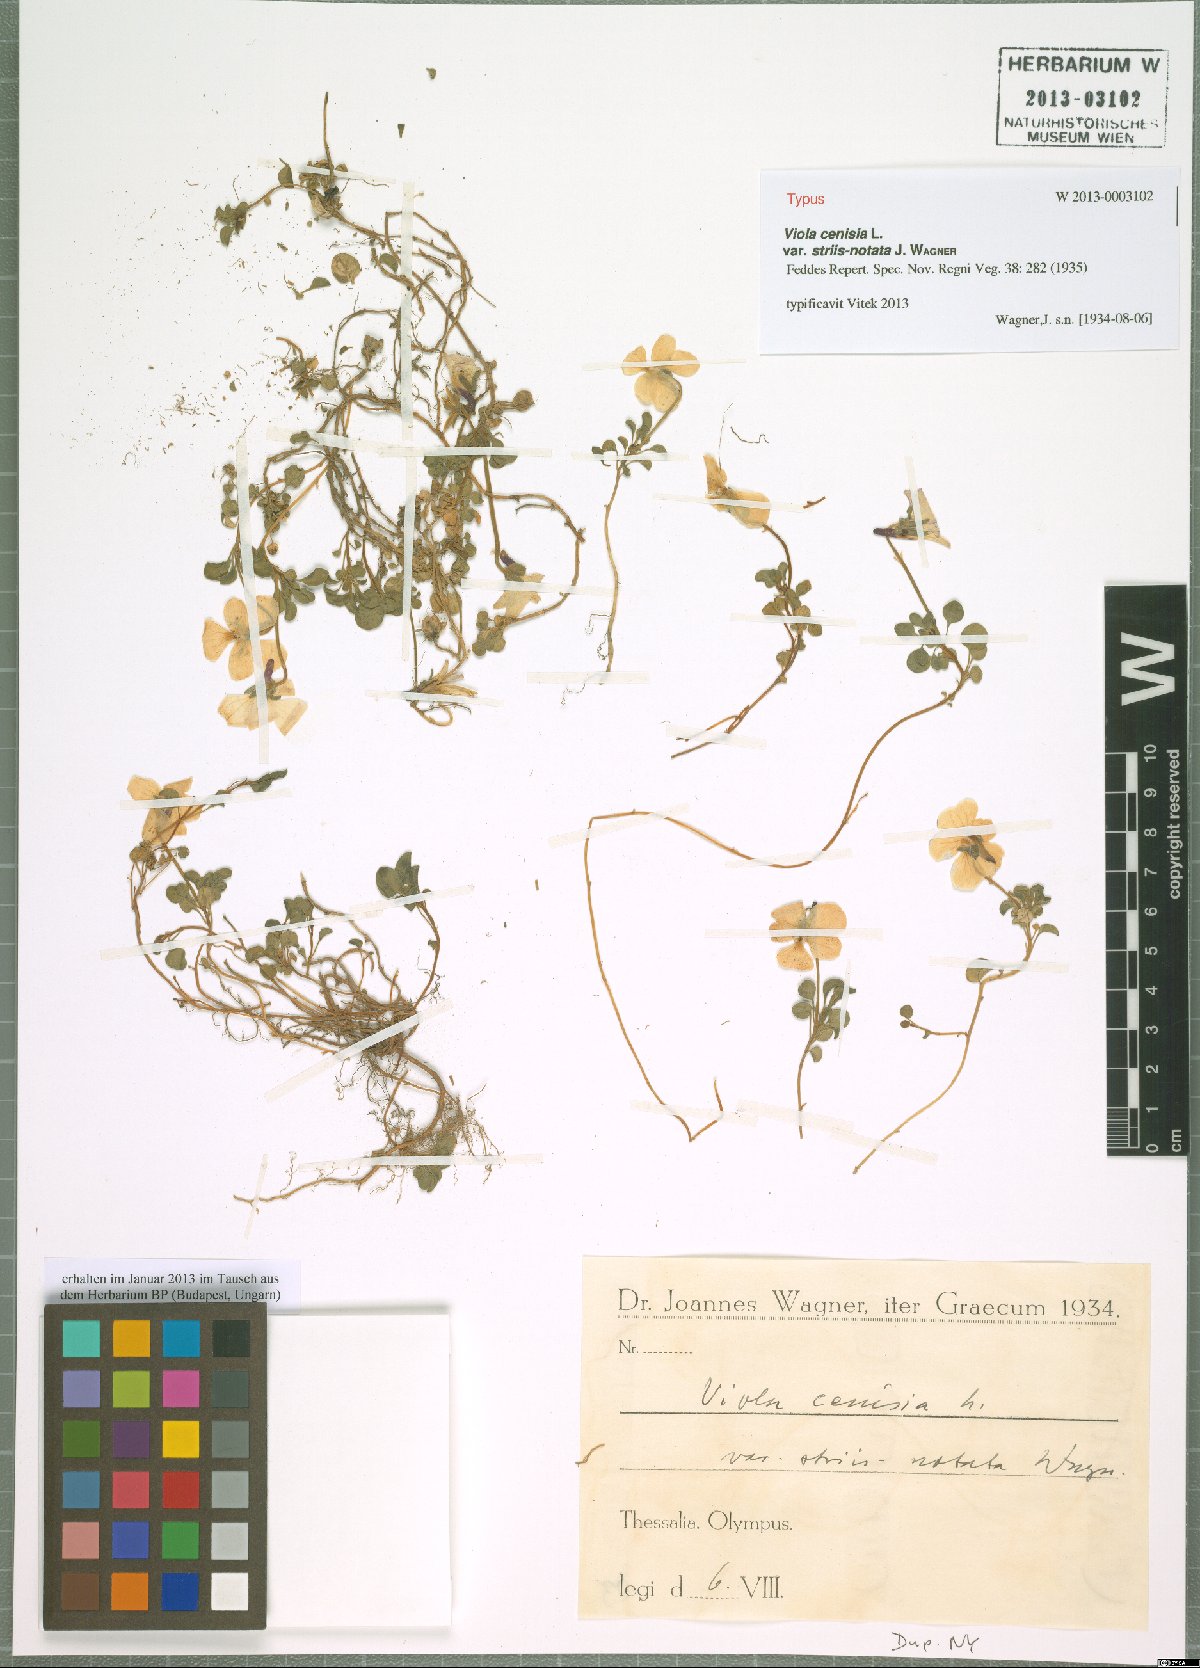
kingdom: Plantae
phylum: Tracheophyta
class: Magnoliopsida
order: Malpighiales
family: Violaceae
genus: Viola
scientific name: Viola striis-notata
